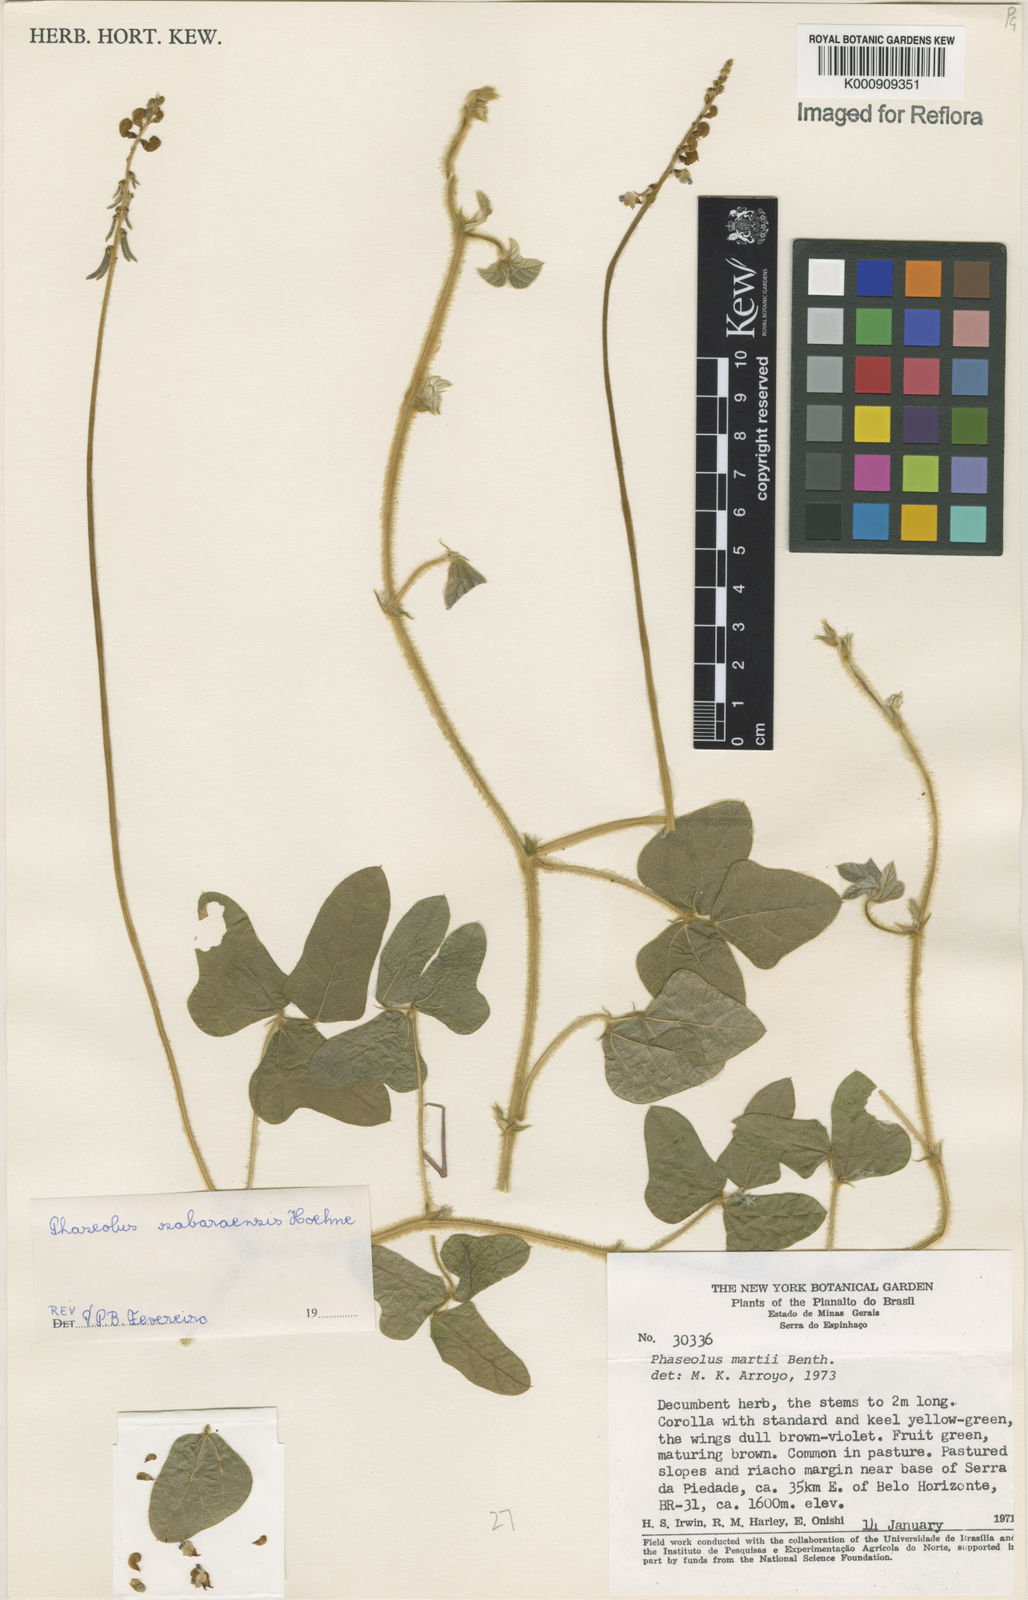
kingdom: Plantae
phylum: Tracheophyta
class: Magnoliopsida
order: Fabales
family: Fabaceae
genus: Macroptilium
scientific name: Macroptilium sabaraense
